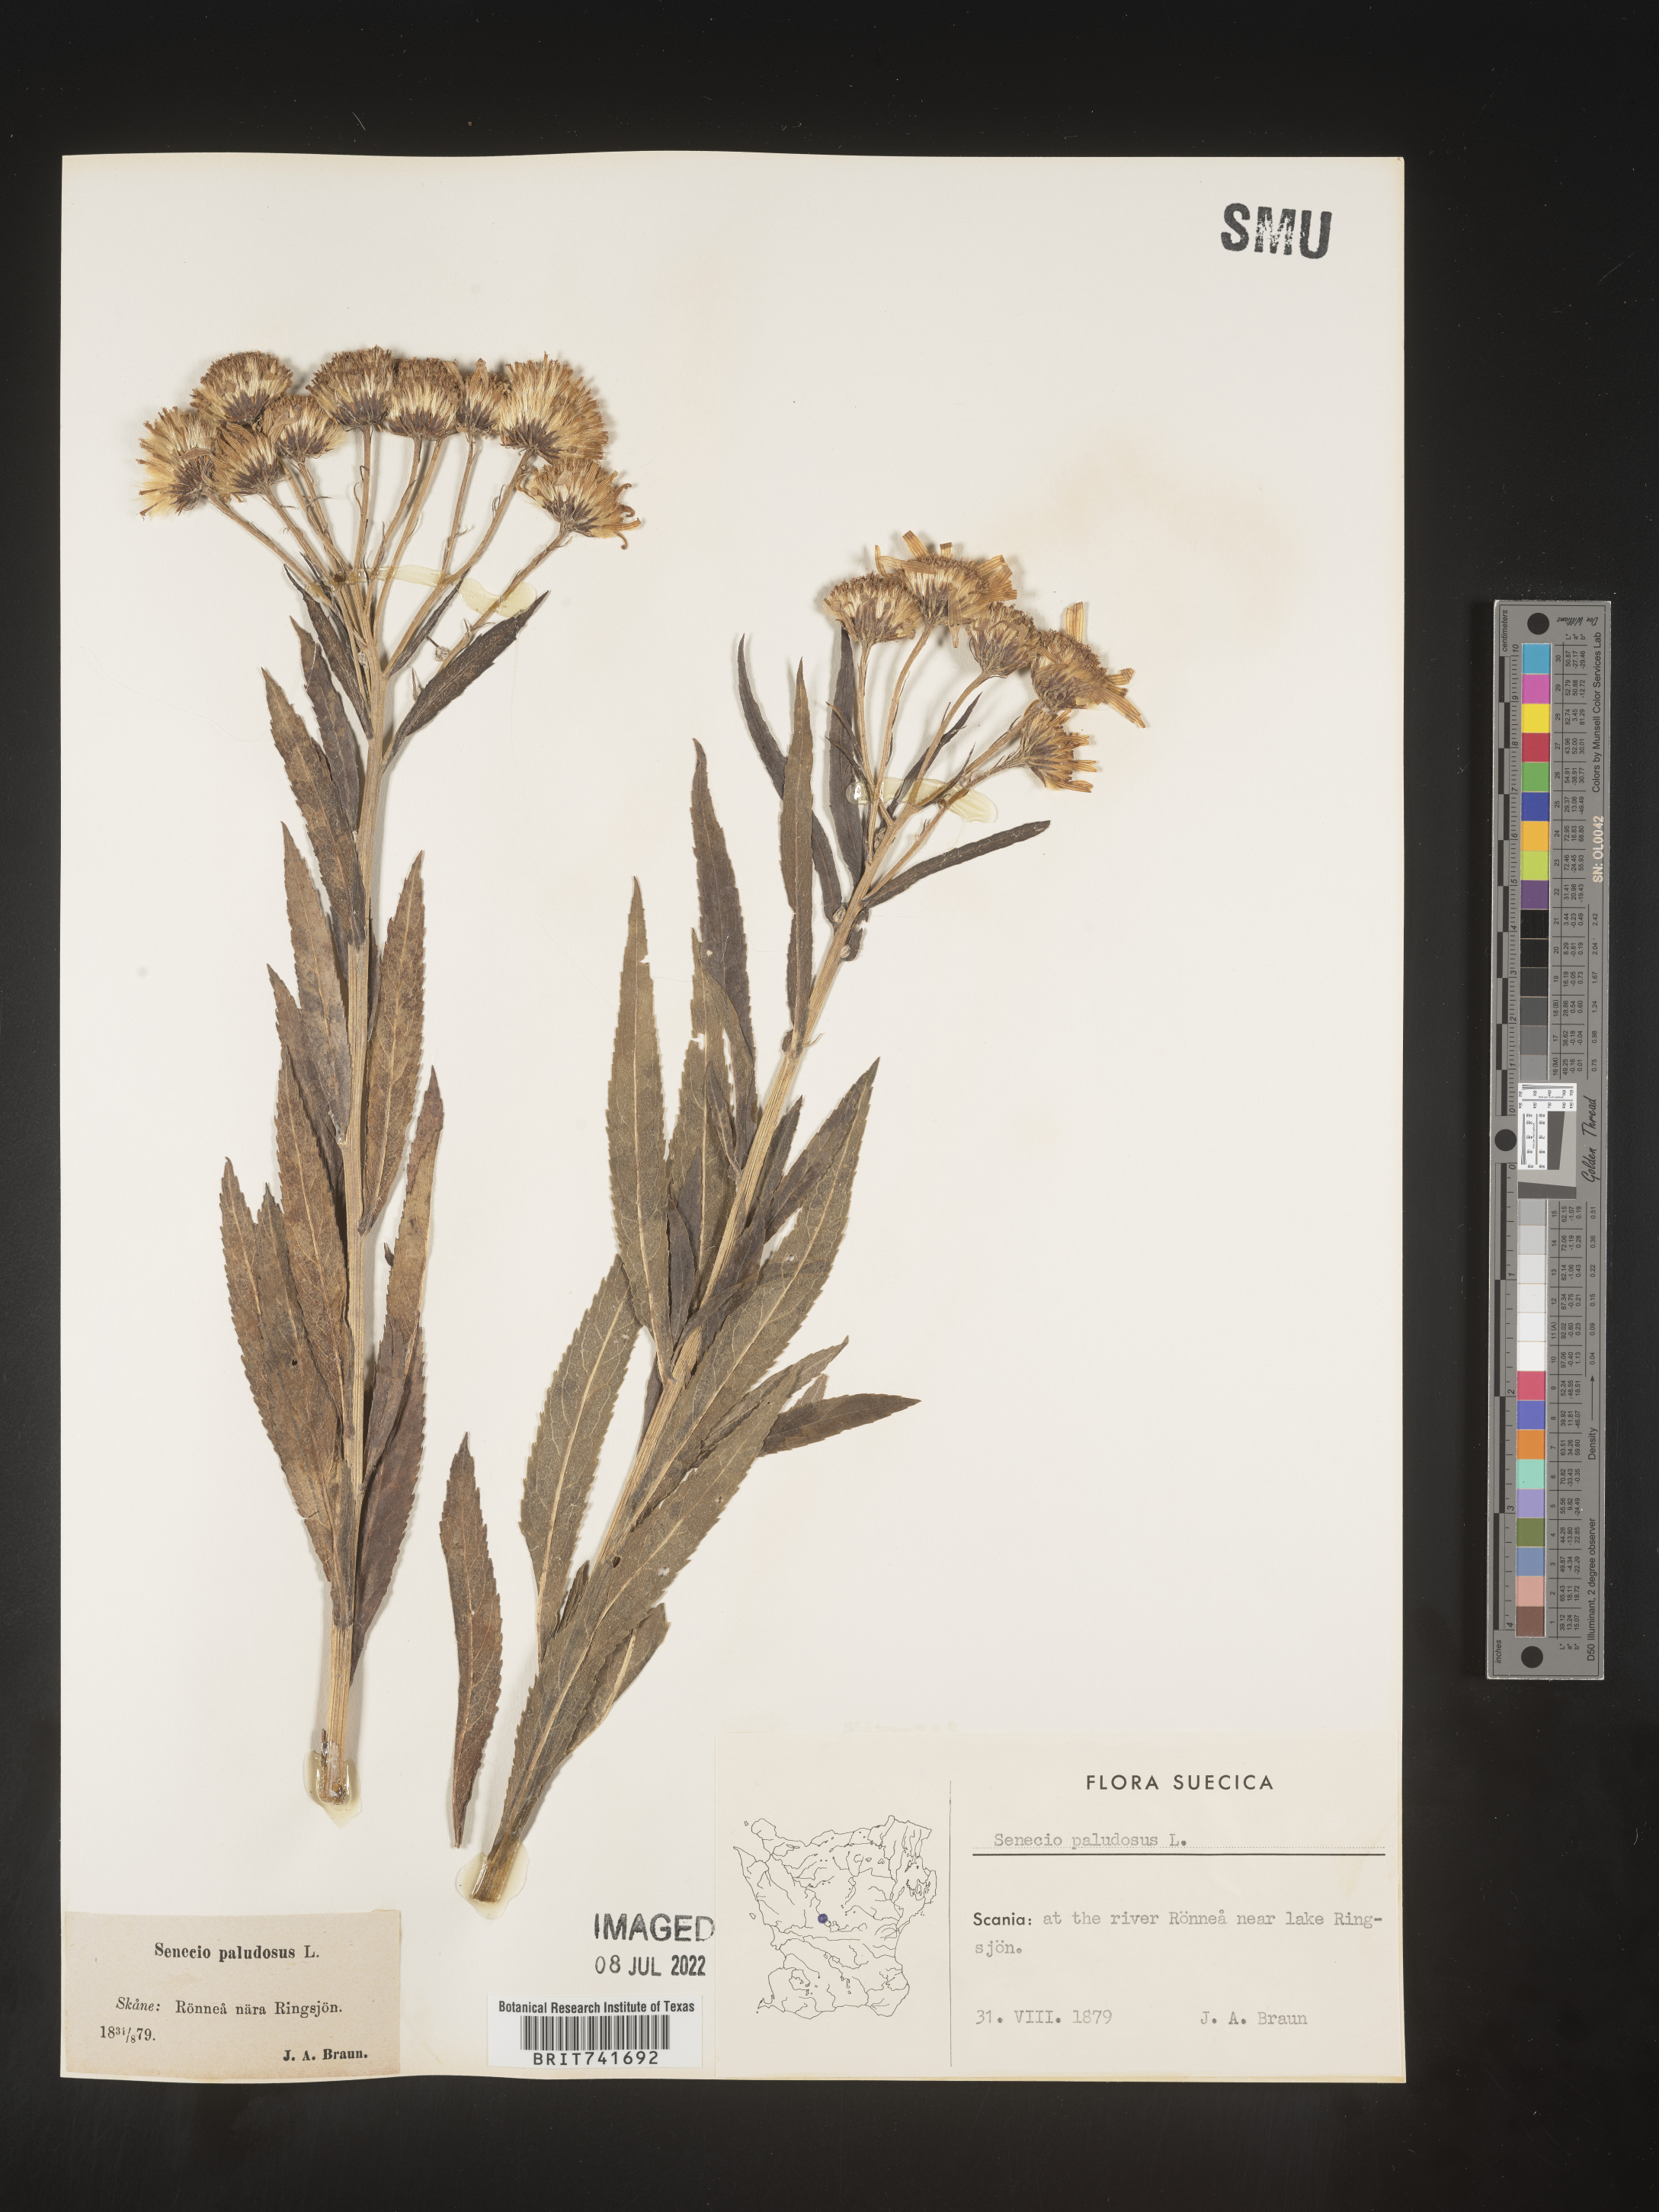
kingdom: Plantae
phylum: Tracheophyta
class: Magnoliopsida
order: Asterales
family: Asteraceae
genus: Senecio
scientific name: Senecio
